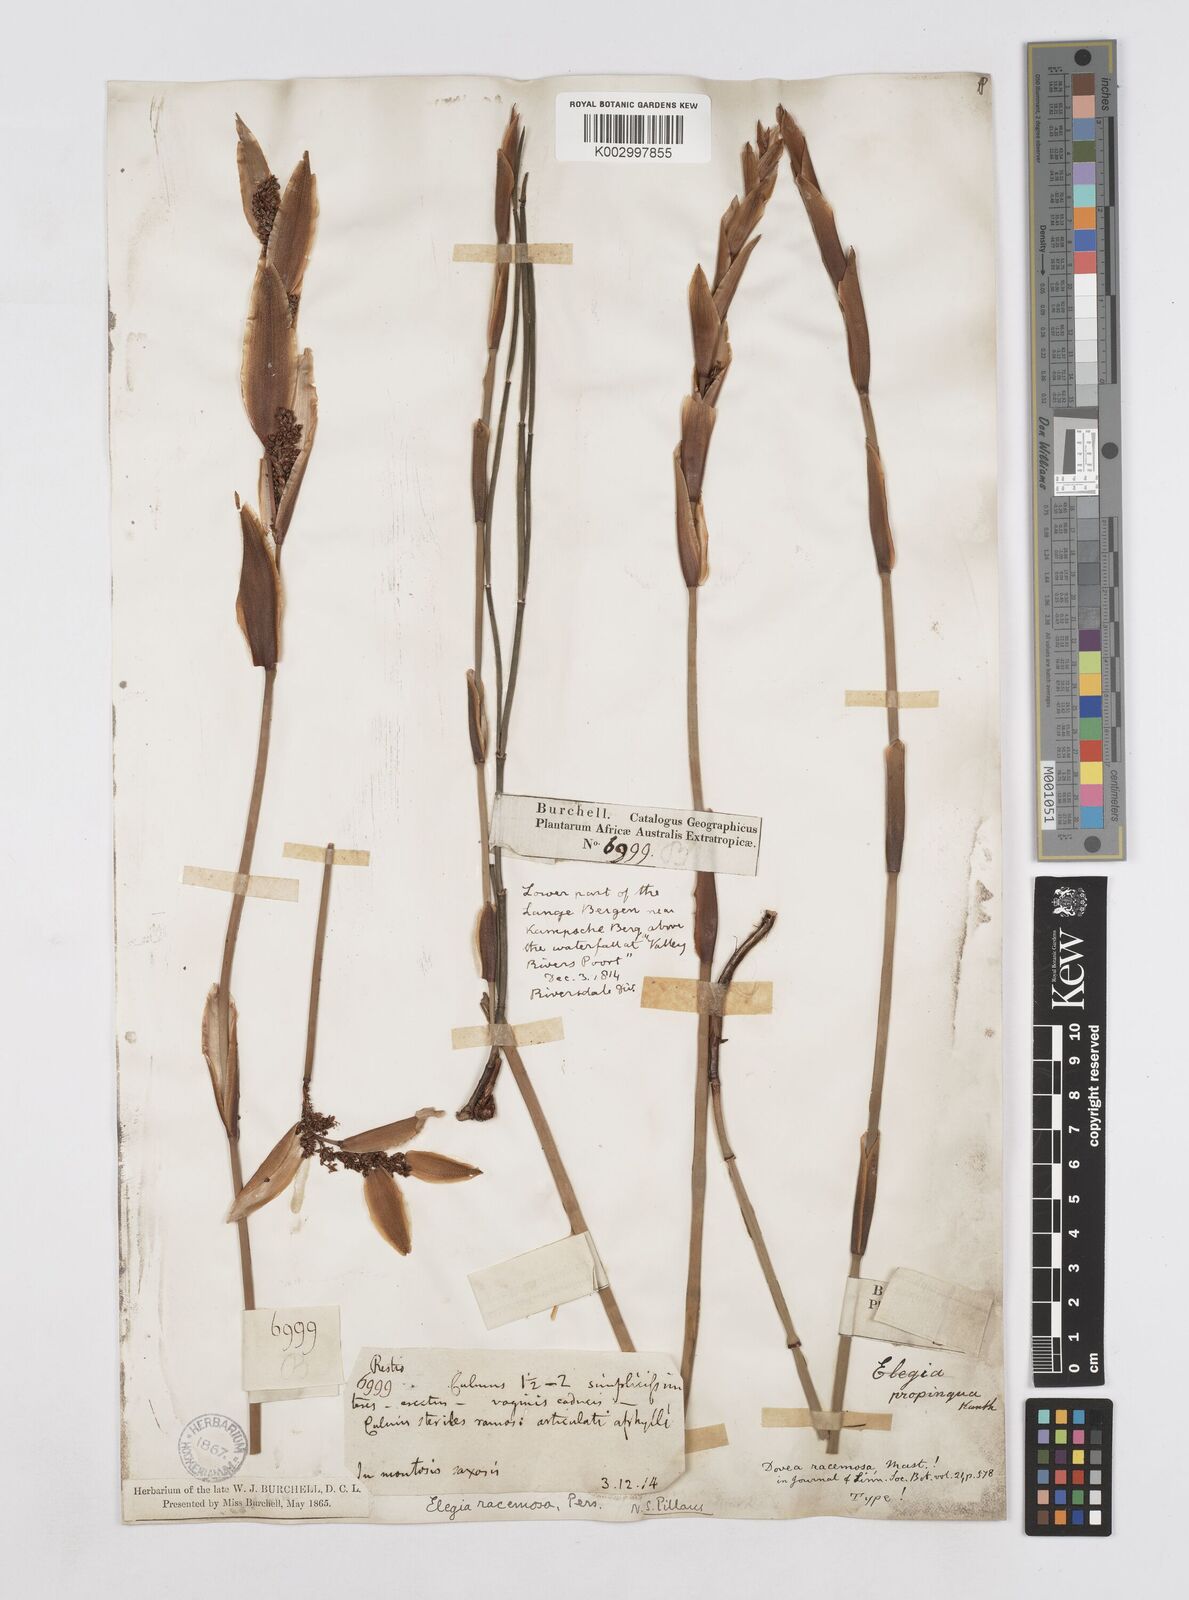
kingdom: Plantae
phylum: Tracheophyta
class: Liliopsida
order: Poales
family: Restionaceae
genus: Elegia
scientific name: Elegia racemosa
